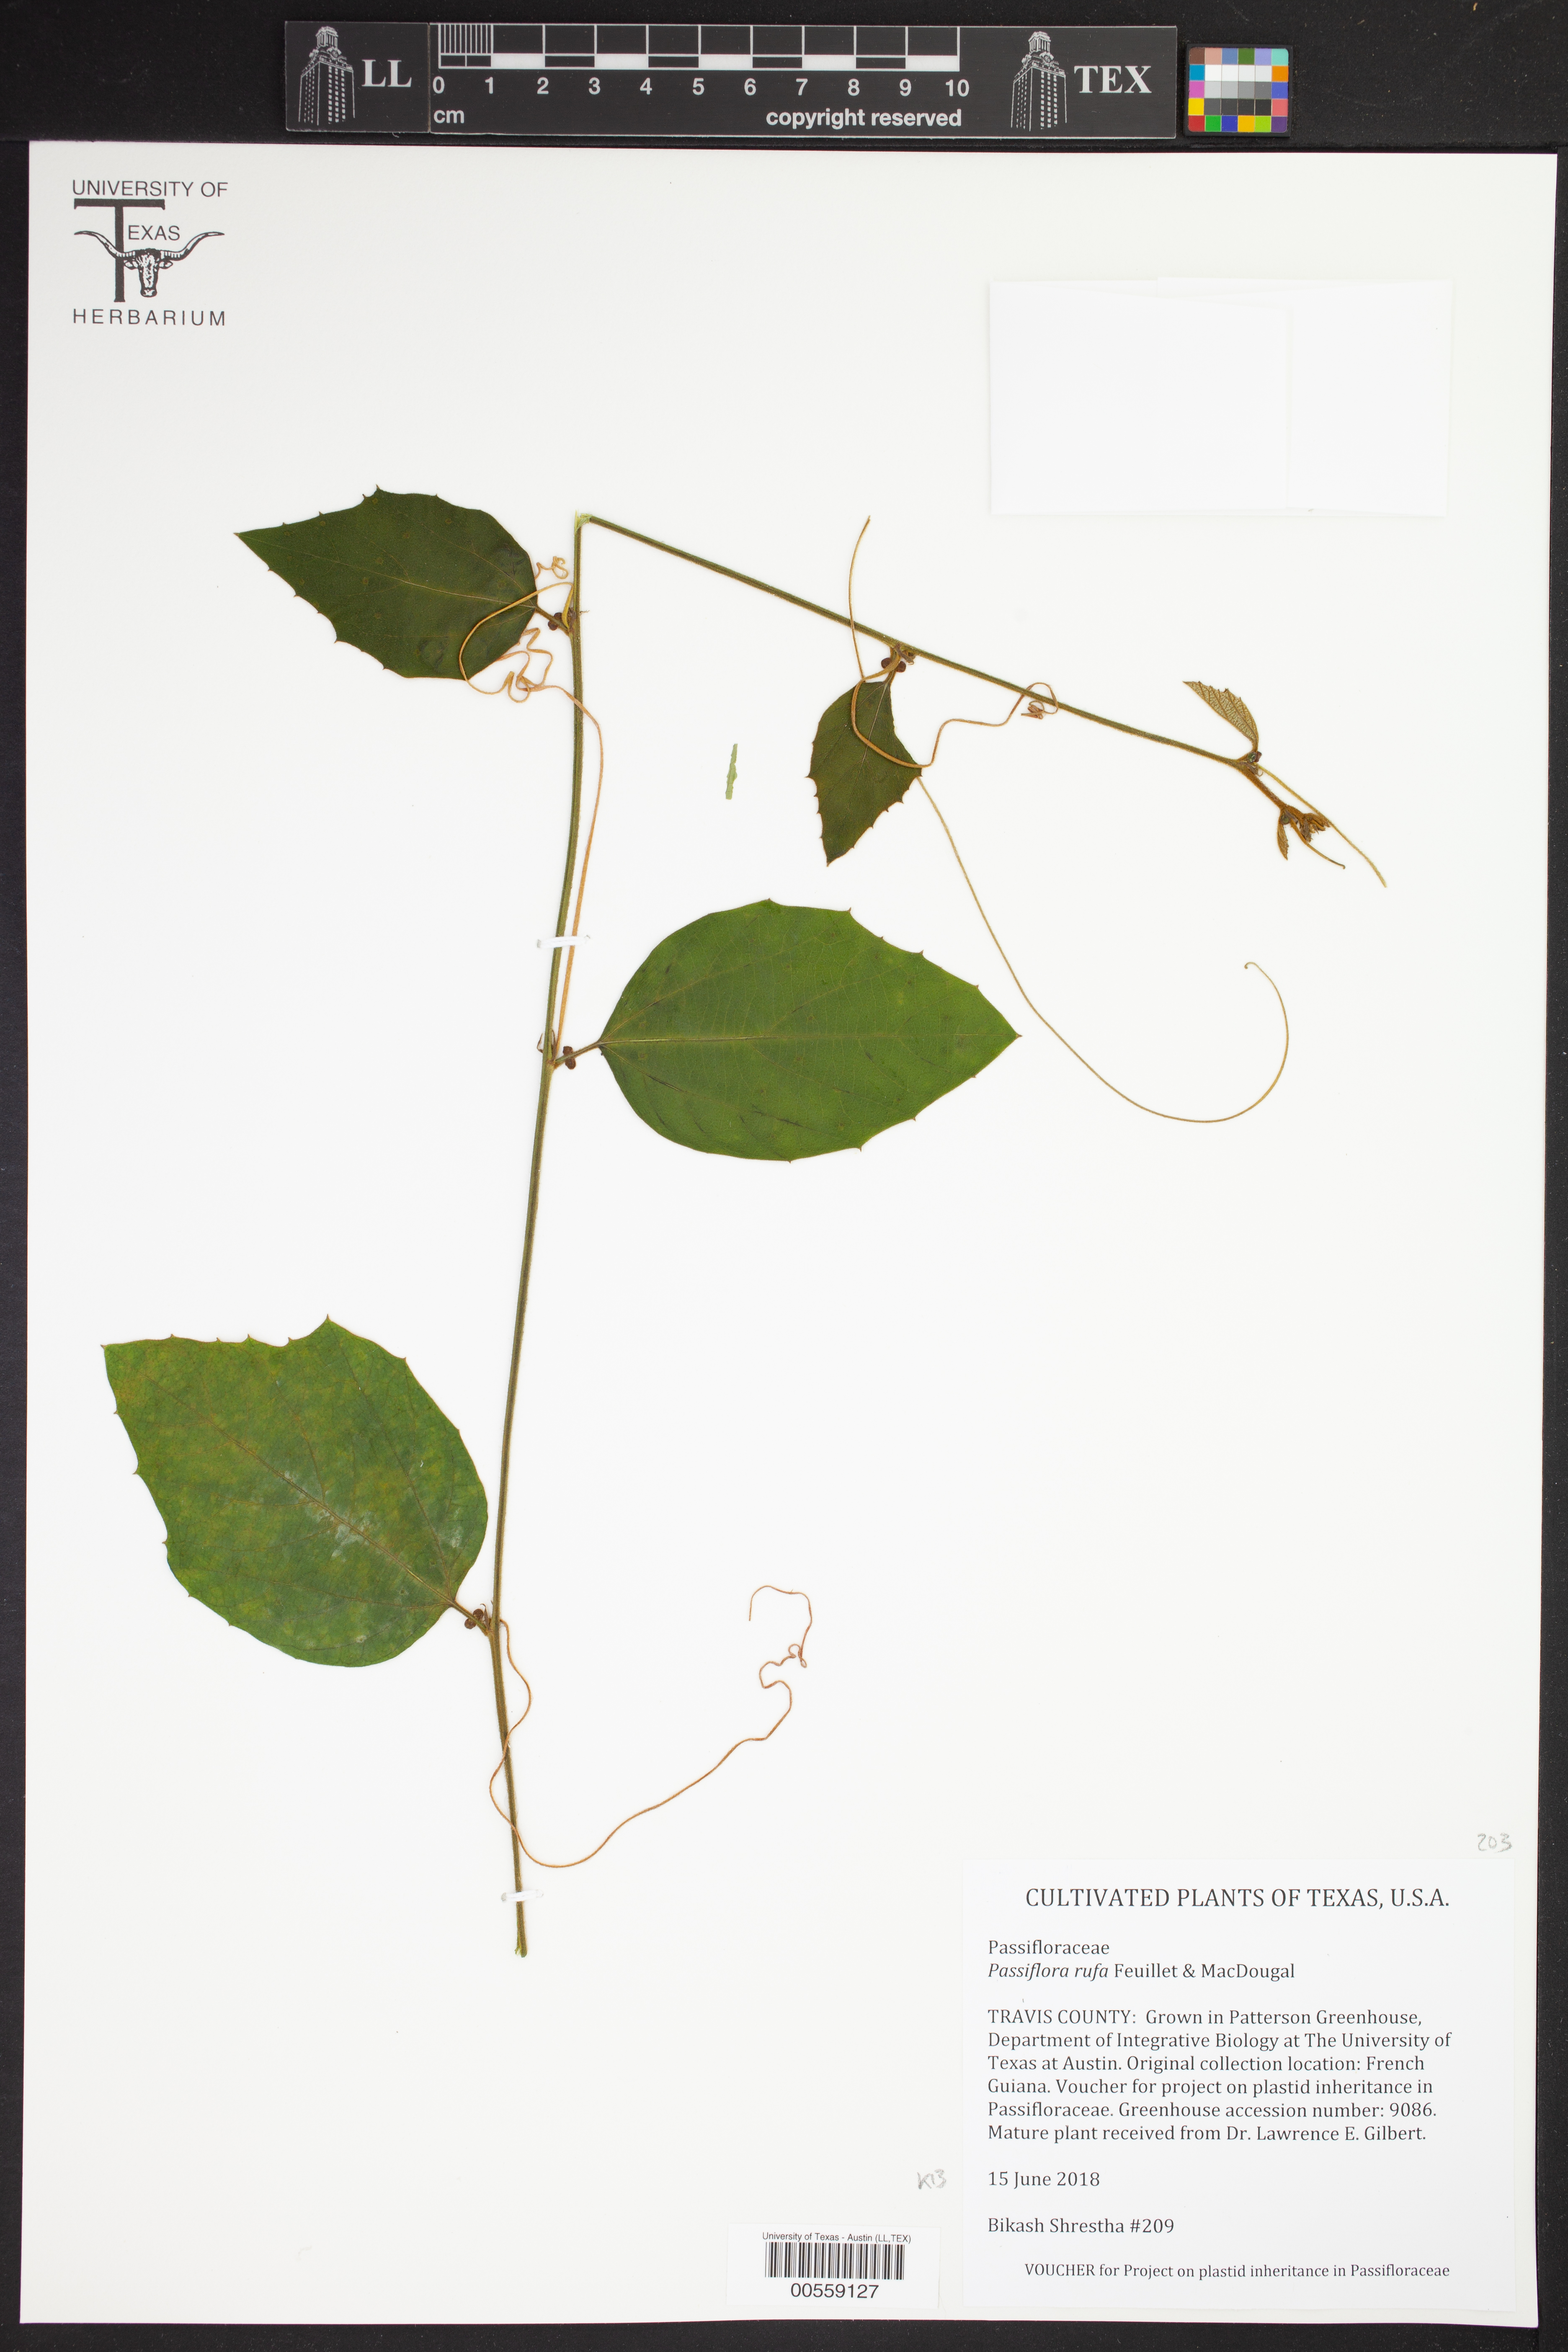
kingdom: Plantae
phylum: Tracheophyta
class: Magnoliopsida
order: Malpighiales
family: Passifloraceae
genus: Passiflora
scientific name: Passiflora rufa
